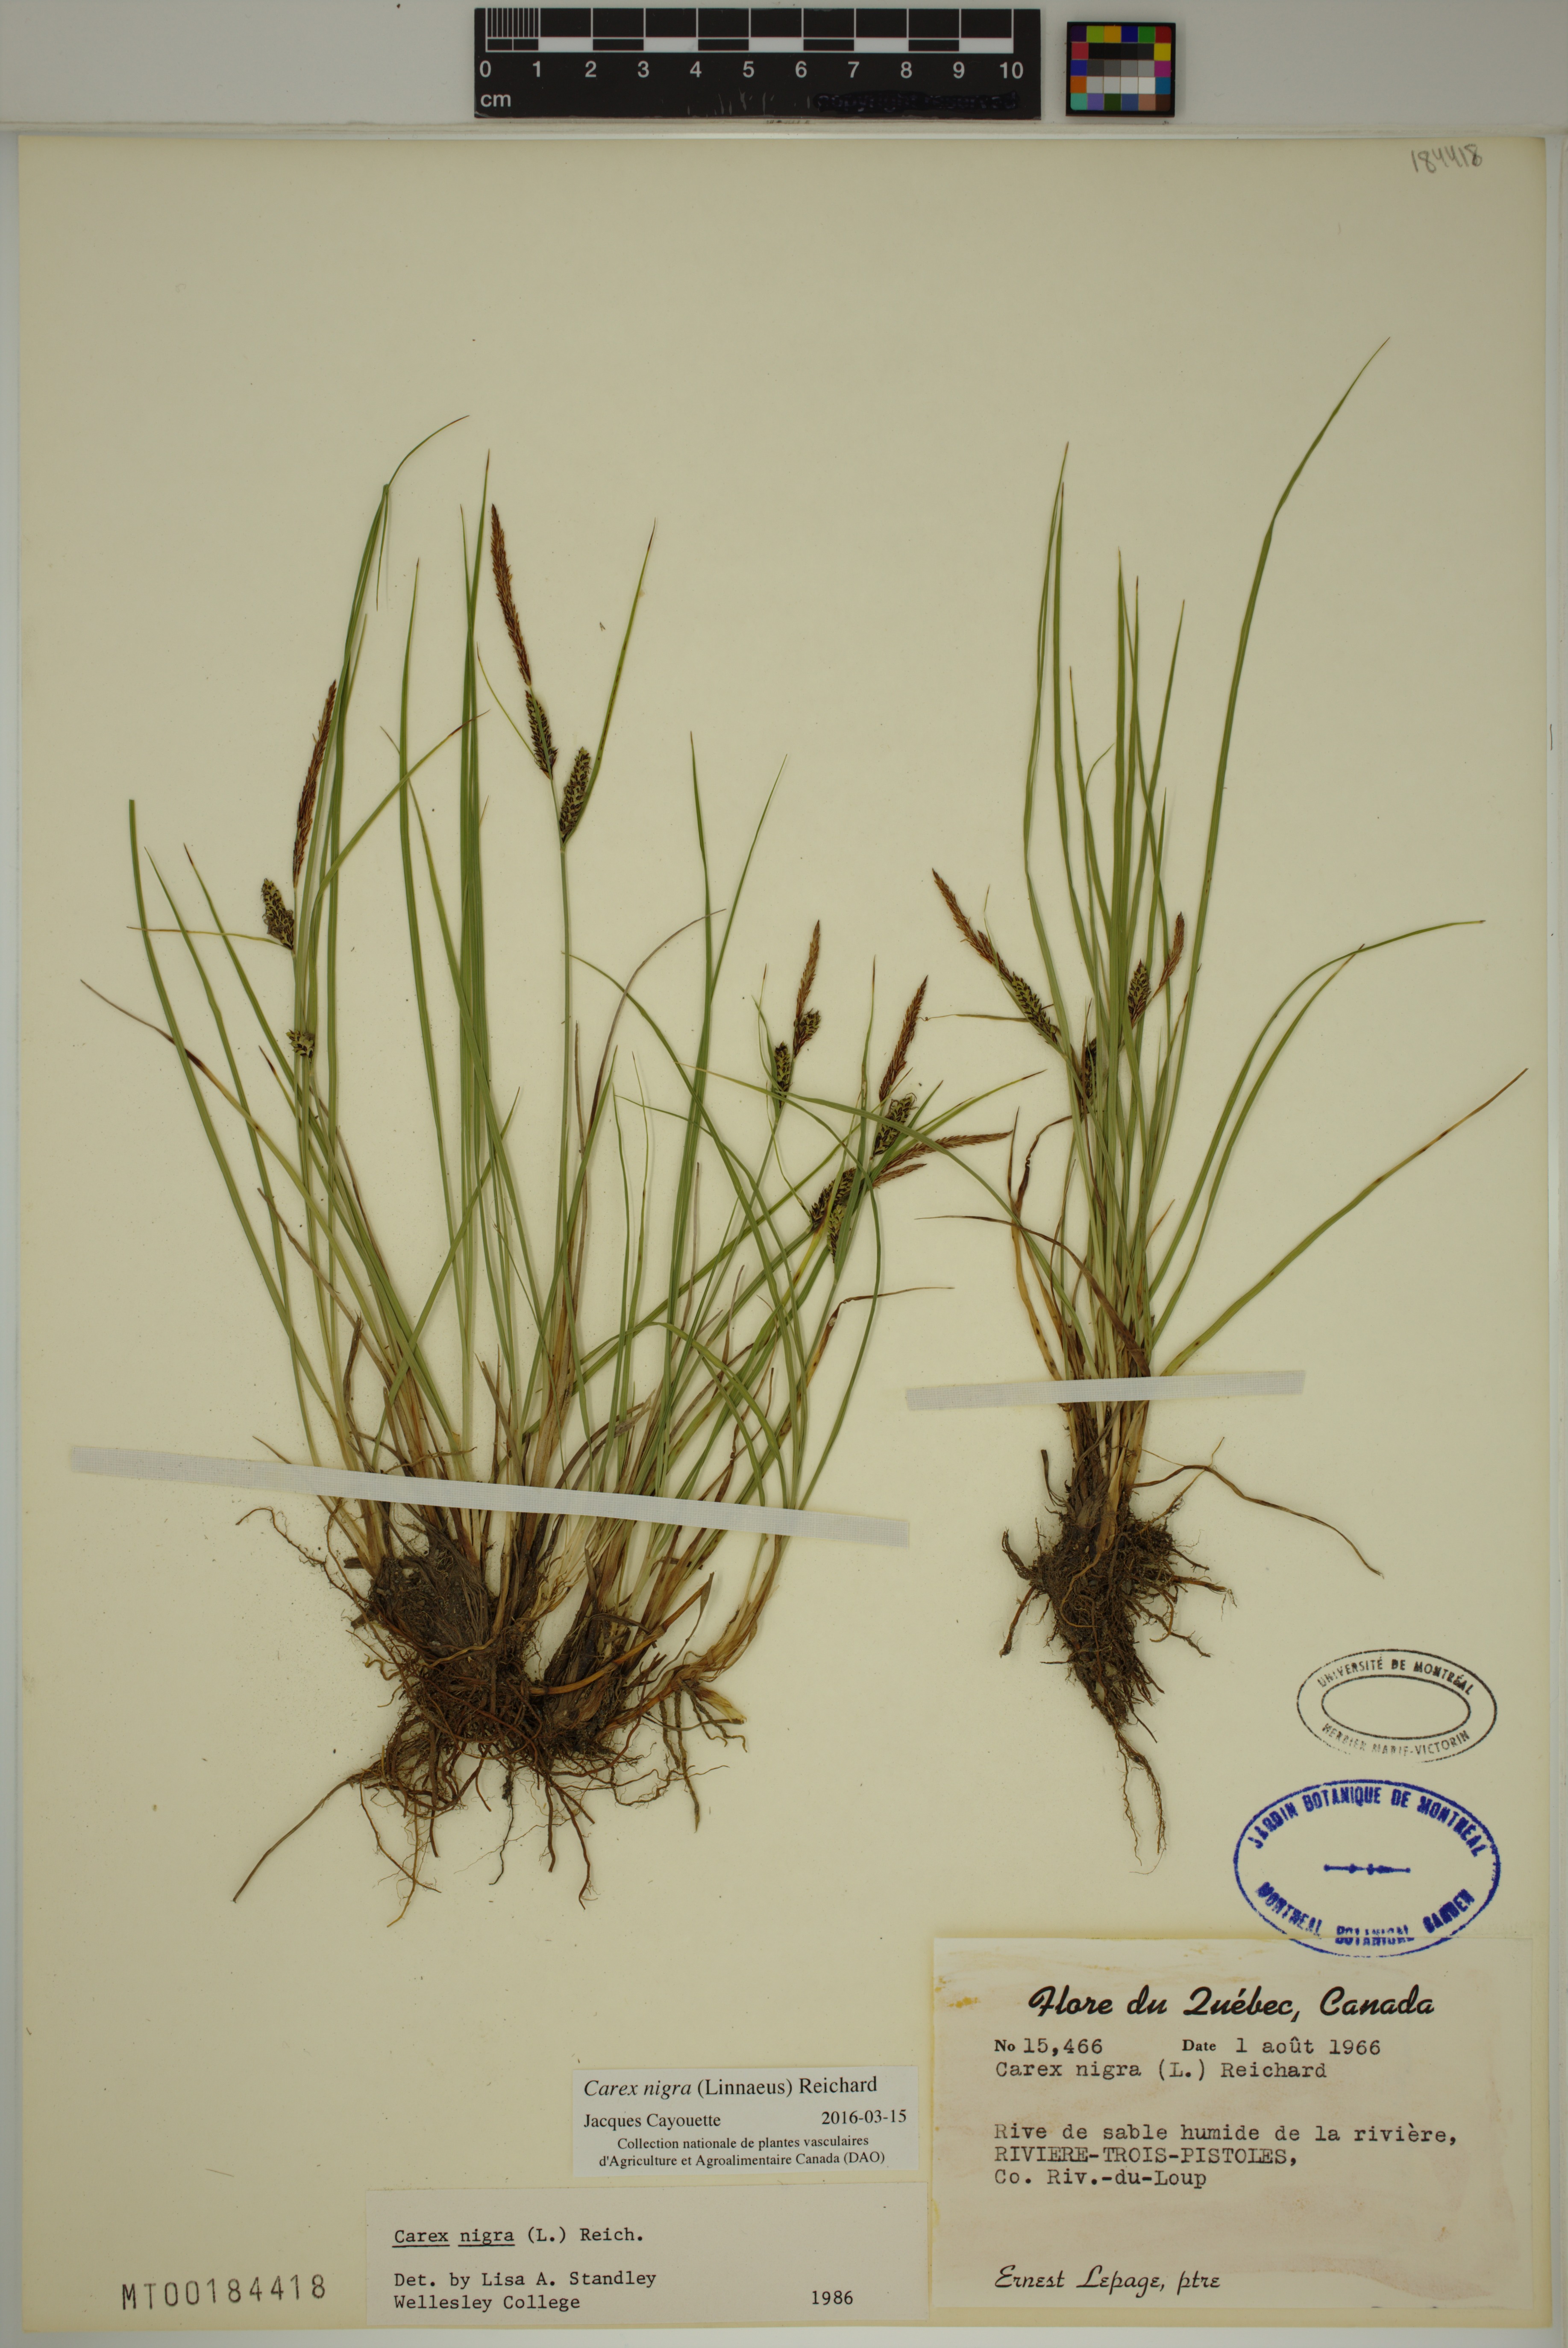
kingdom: Plantae
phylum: Tracheophyta
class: Liliopsida
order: Poales
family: Cyperaceae
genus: Carex
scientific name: Carex nigra
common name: Common sedge
